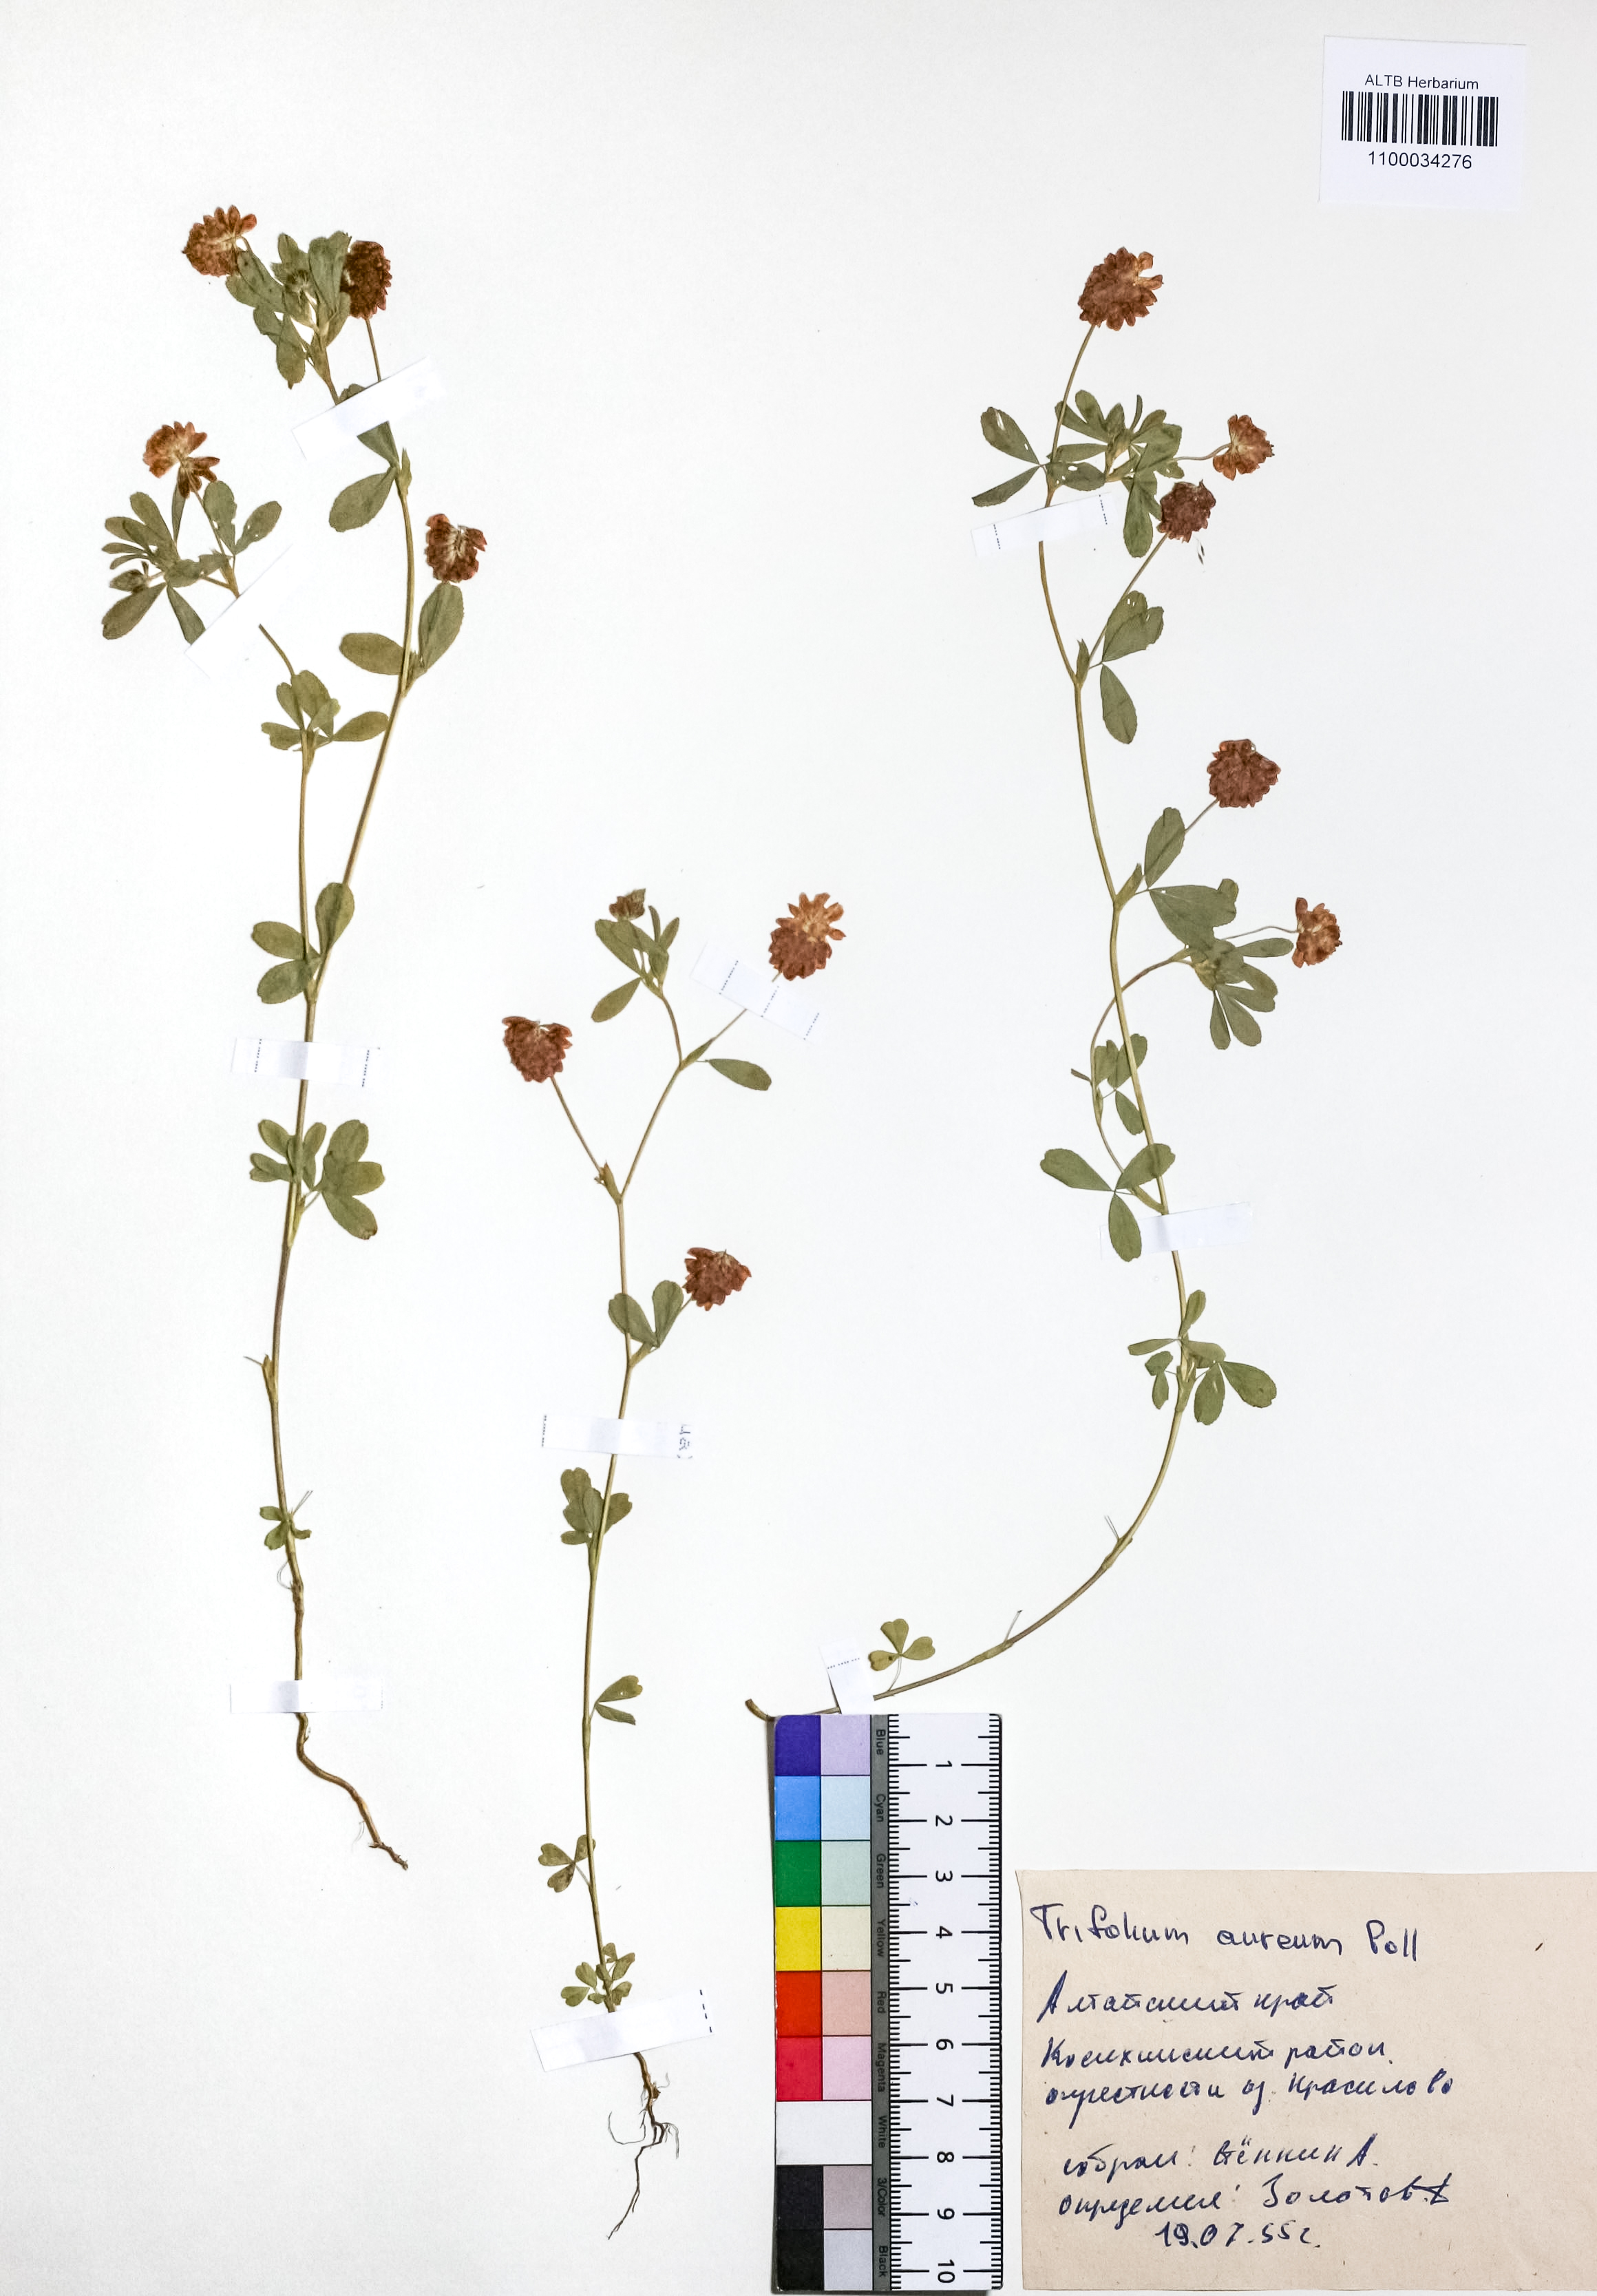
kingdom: Plantae
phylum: Tracheophyta
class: Magnoliopsida
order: Fabales
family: Fabaceae
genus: Trifolium
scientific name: Trifolium aureum
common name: Golden clover
